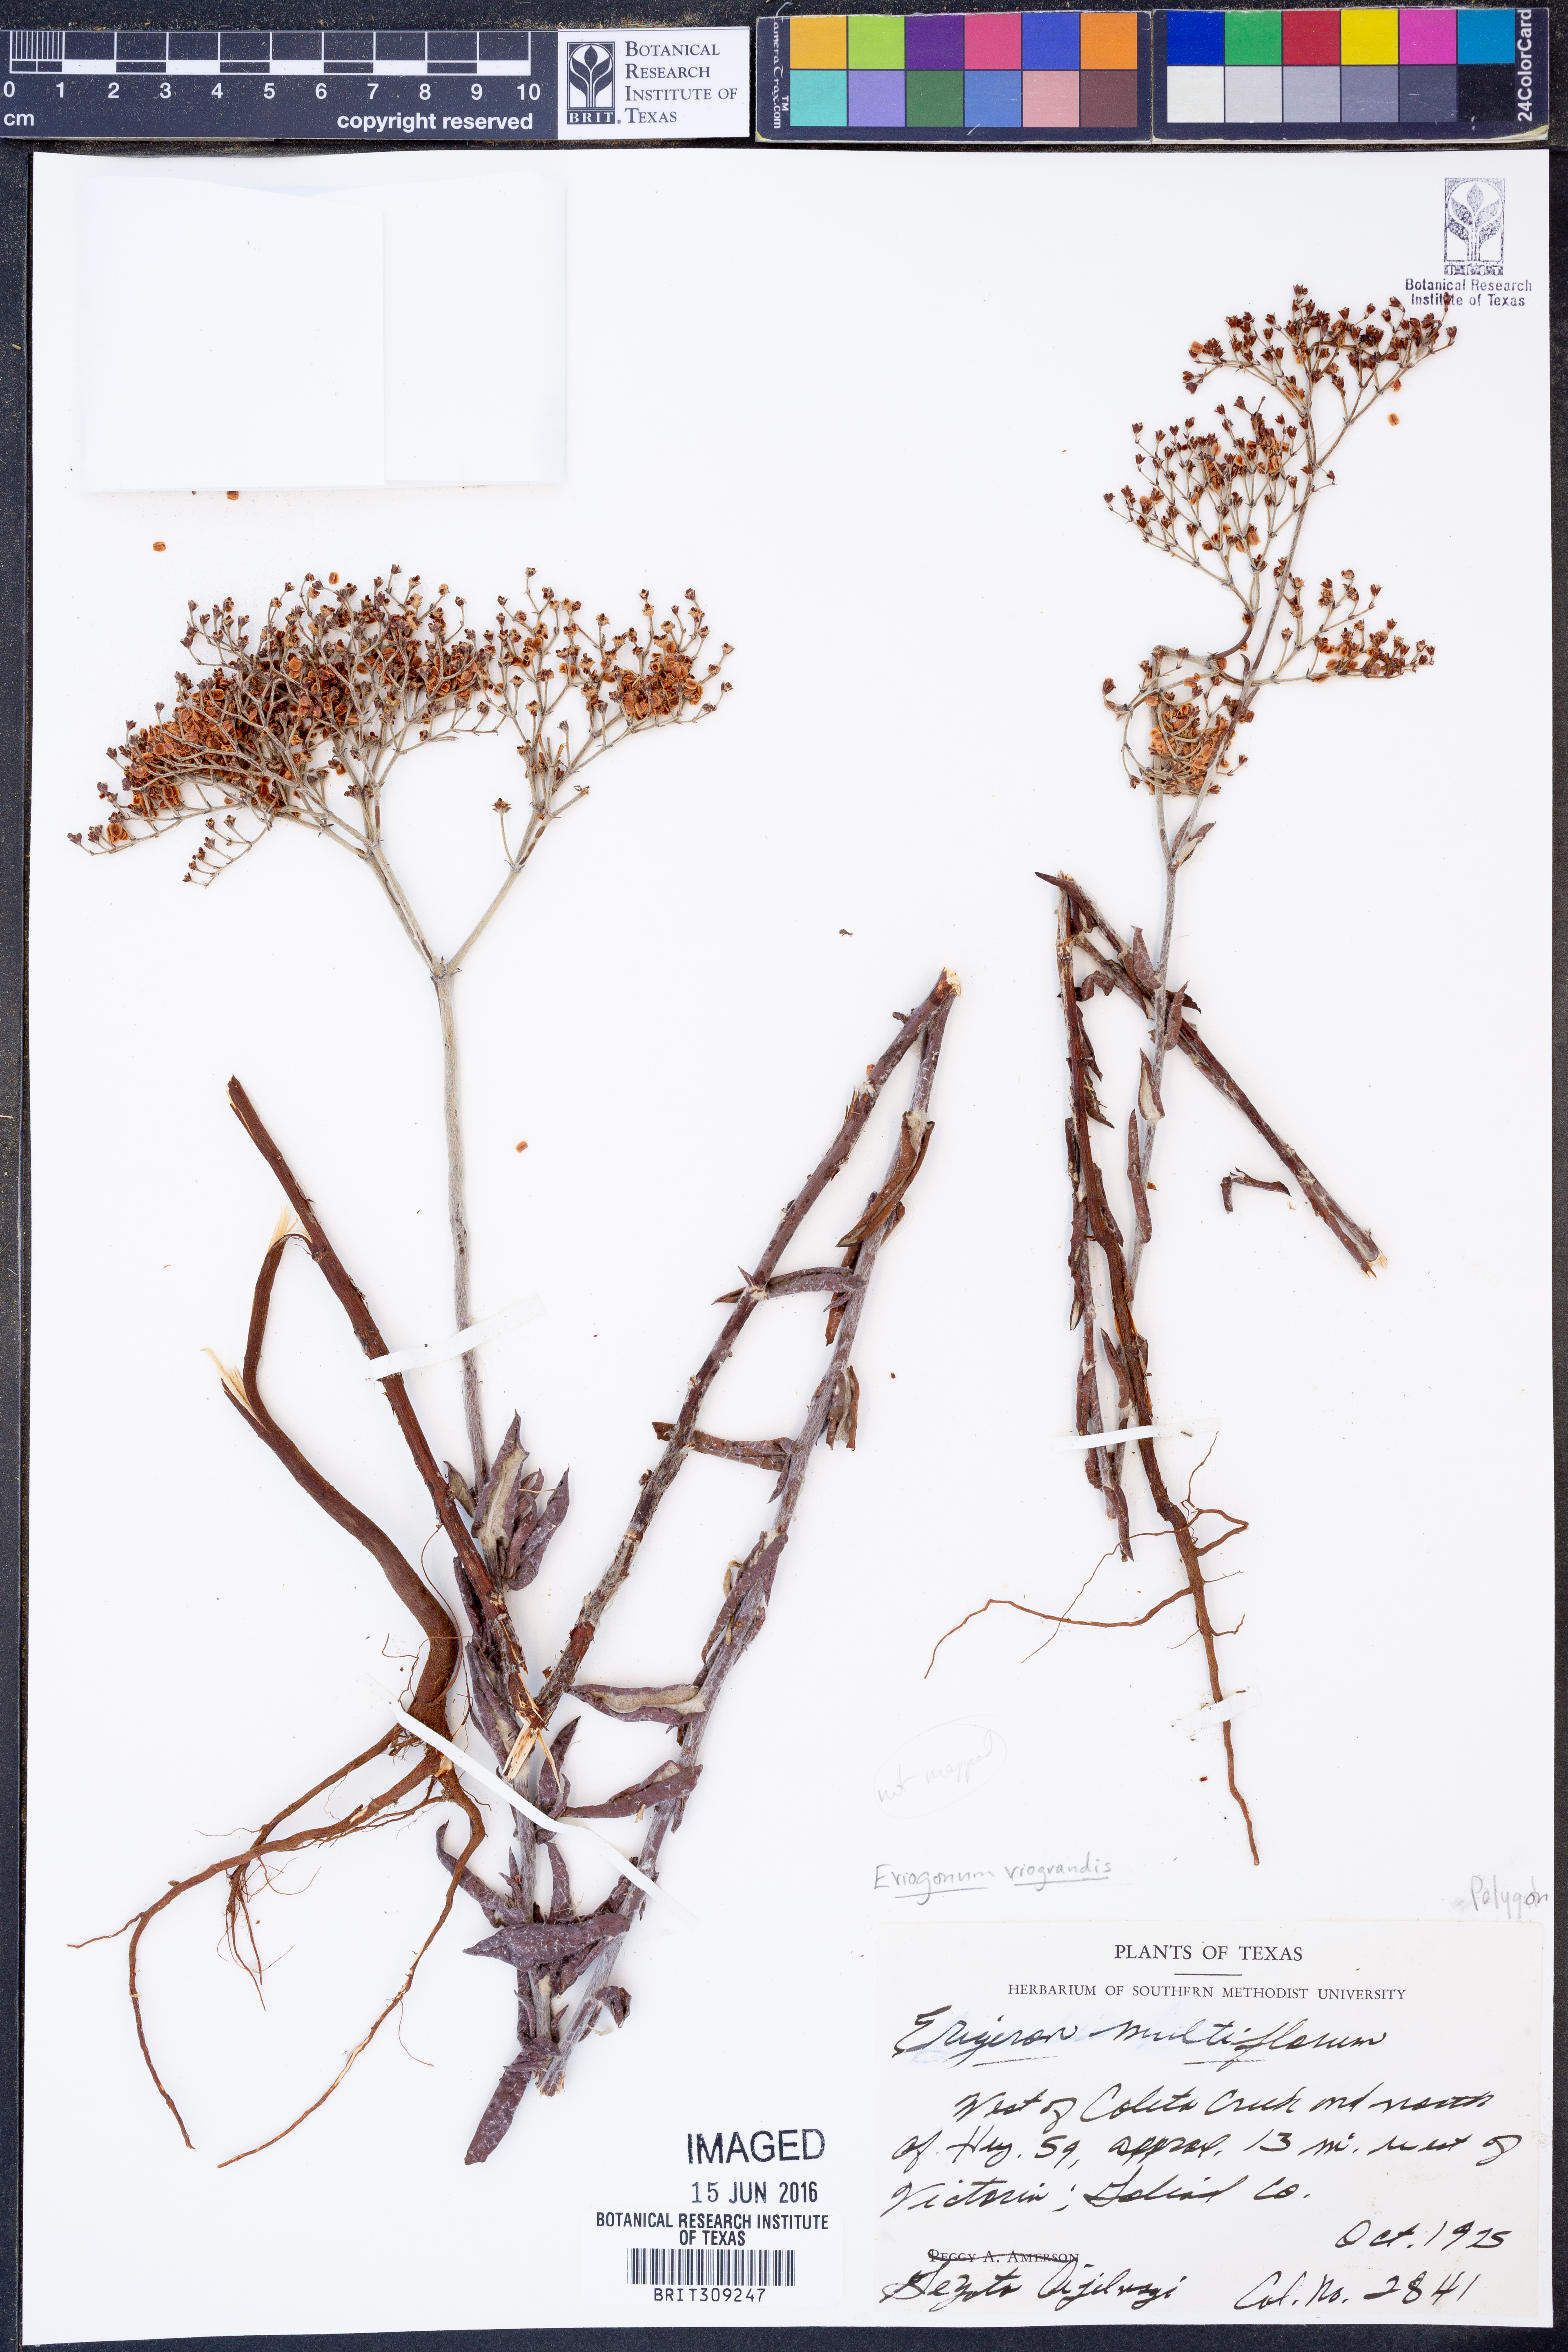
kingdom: Plantae
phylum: Tracheophyta
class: Magnoliopsida
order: Caryophyllales
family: Polygonaceae
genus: Eriogonum
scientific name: Eriogonum multiflorum
